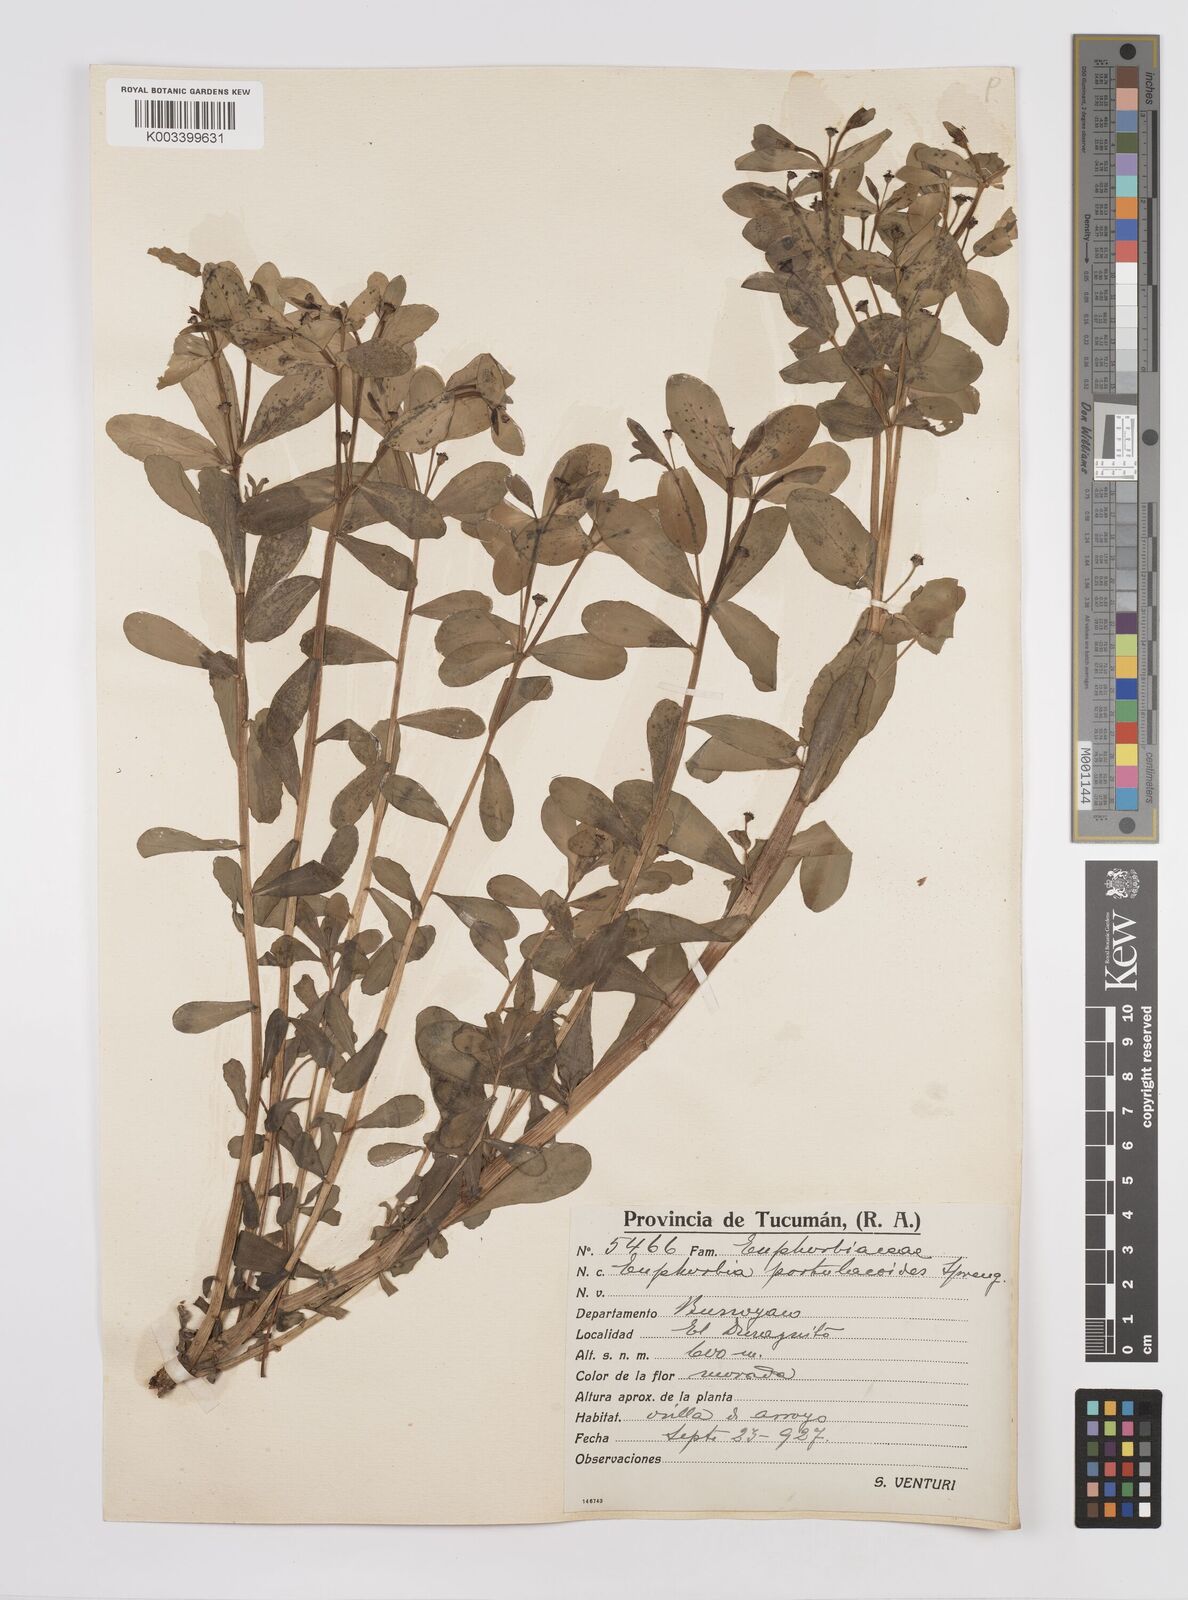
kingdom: Plantae
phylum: Tracheophyta
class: Magnoliopsida
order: Malpighiales
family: Euphorbiaceae
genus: Euphorbia
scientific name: Euphorbia portulacoides
